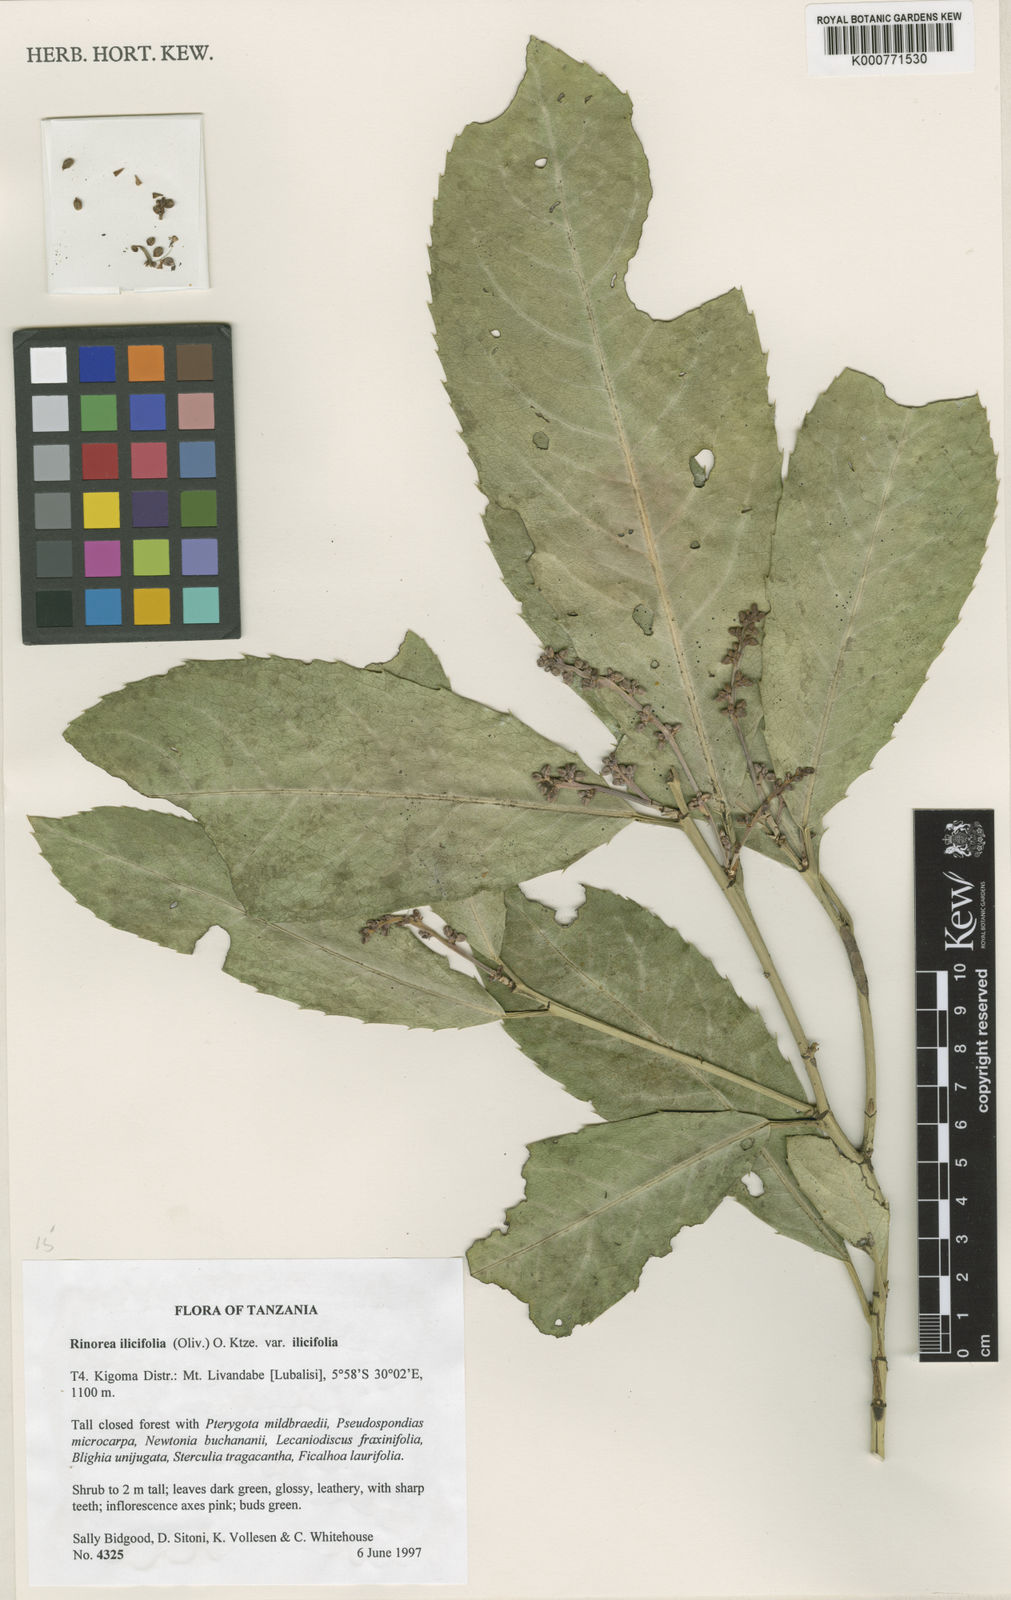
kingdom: Plantae
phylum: Tracheophyta
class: Magnoliopsida
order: Malpighiales
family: Violaceae
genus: Rinorea
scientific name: Rinorea ilicifolia
